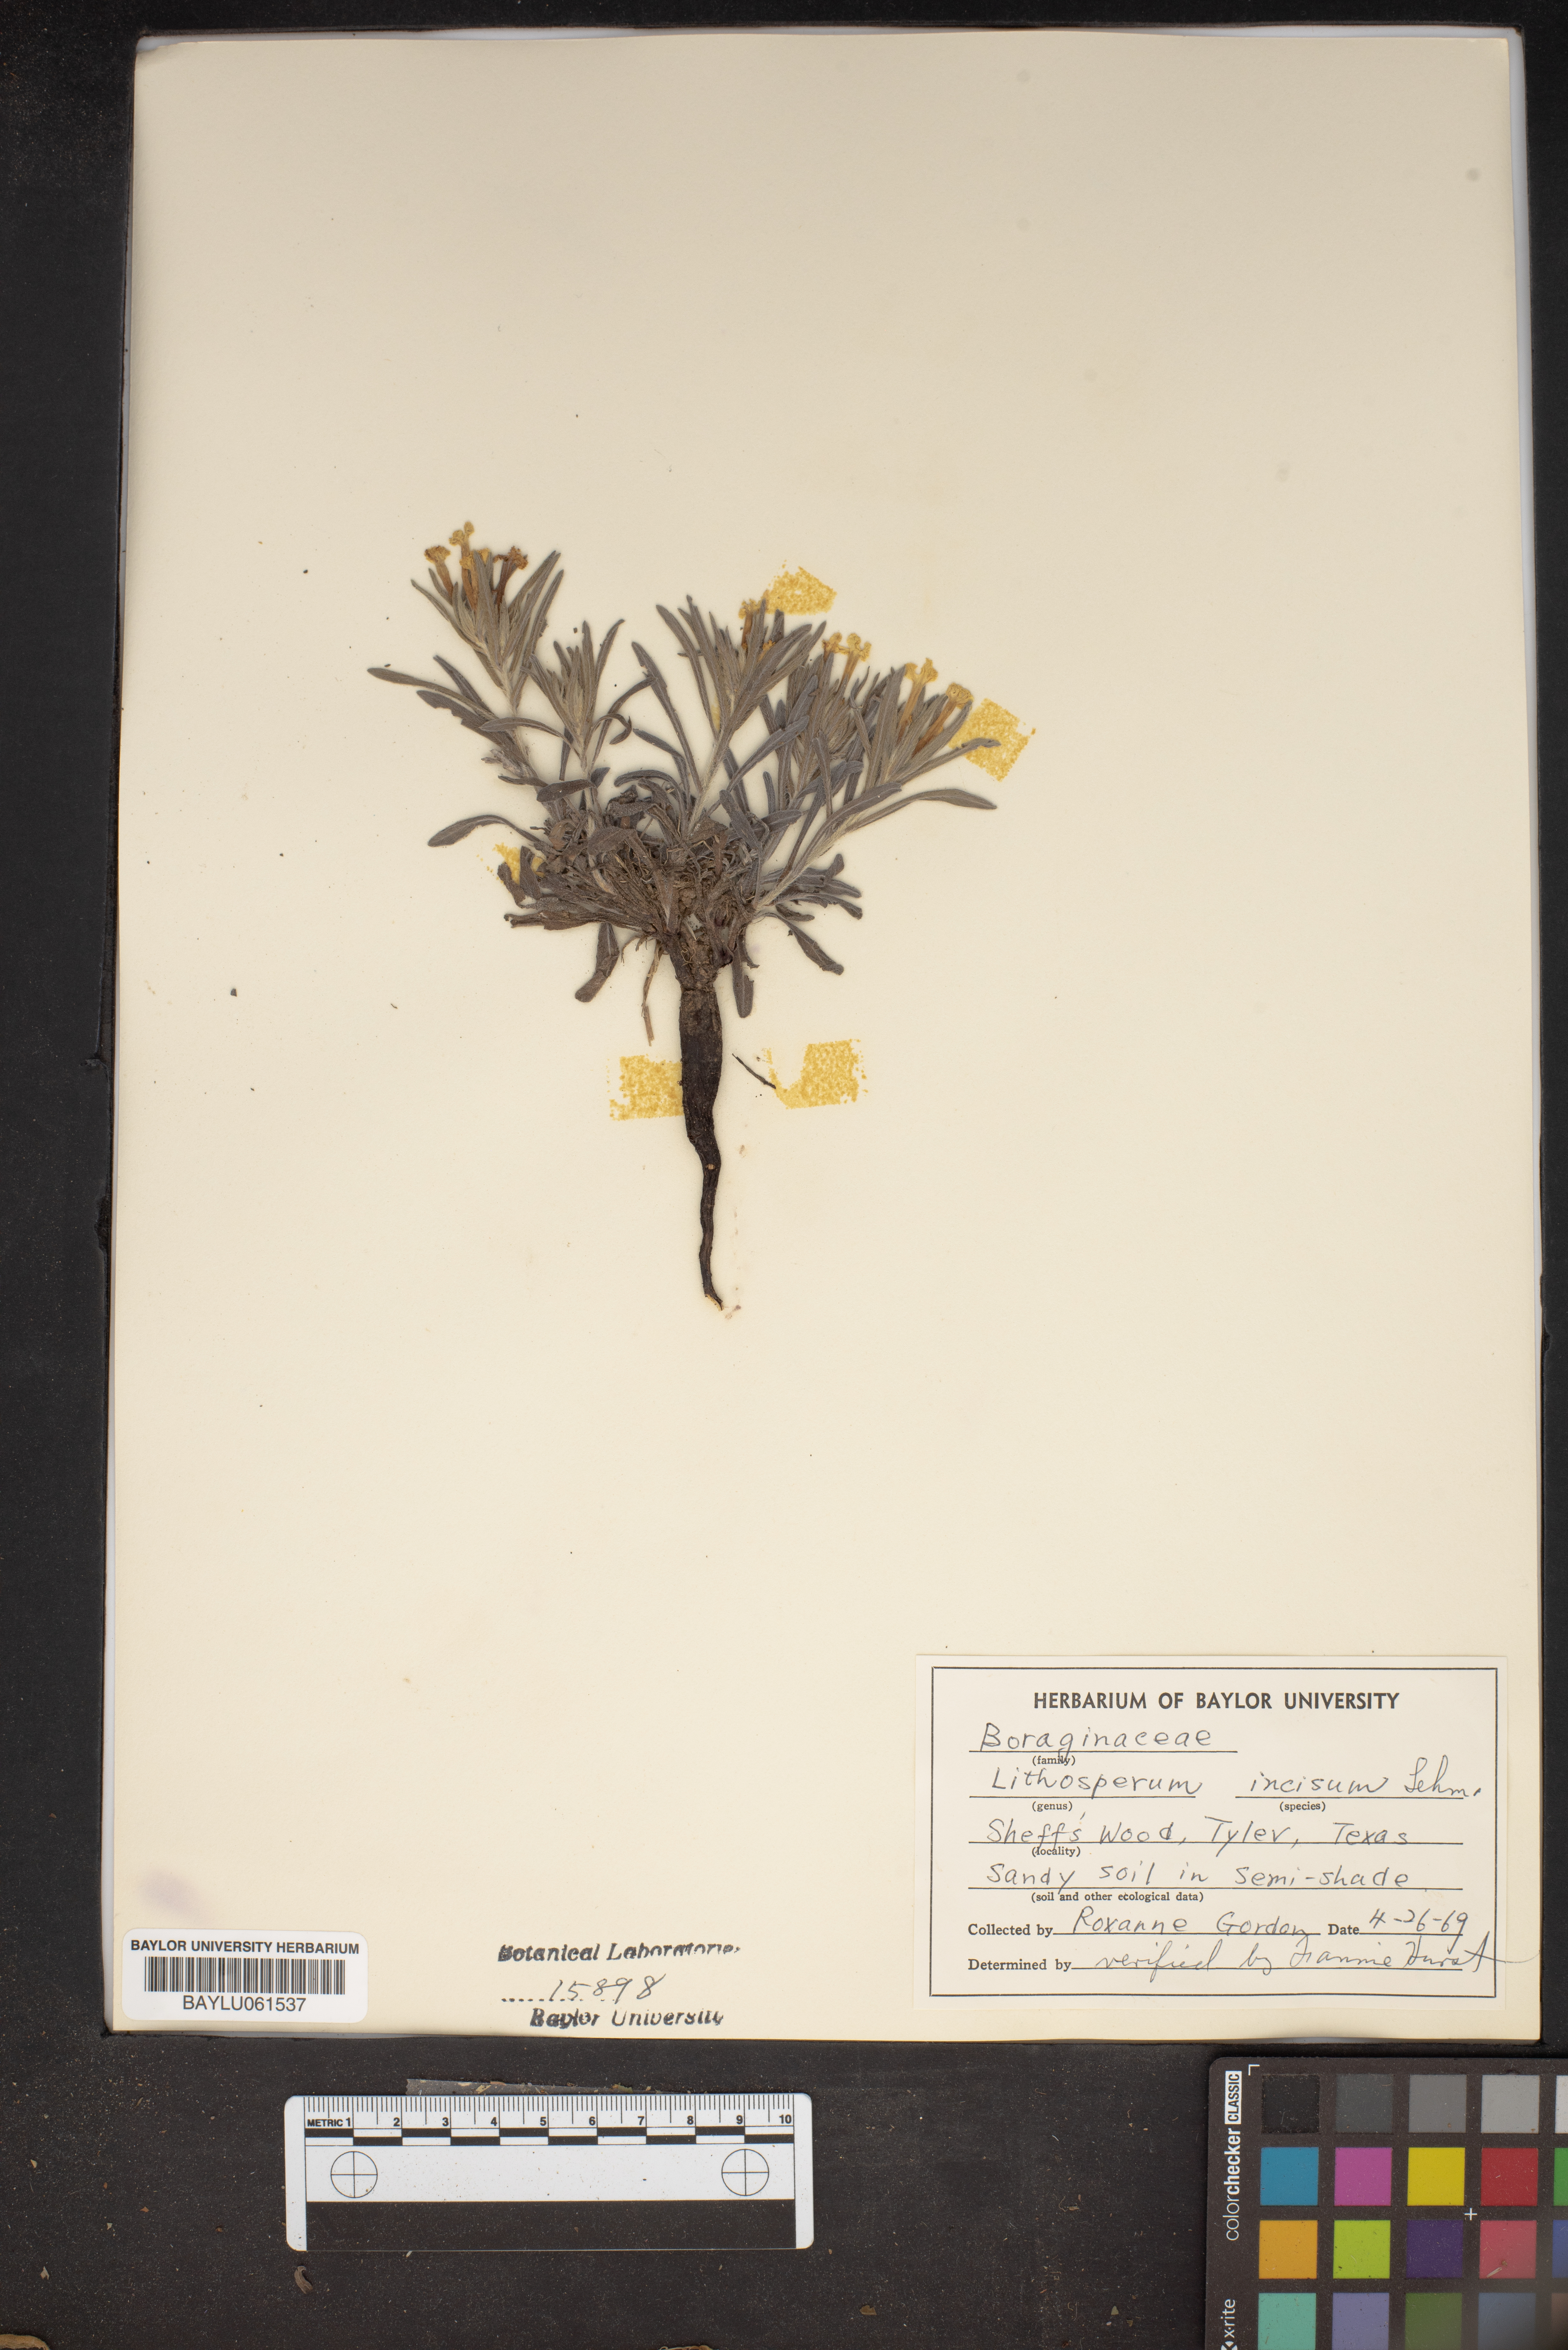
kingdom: Plantae
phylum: Tracheophyta
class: Magnoliopsida
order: Boraginales
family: Boraginaceae
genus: Lithospermum
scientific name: Lithospermum incisum
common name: Fringed gromwell
